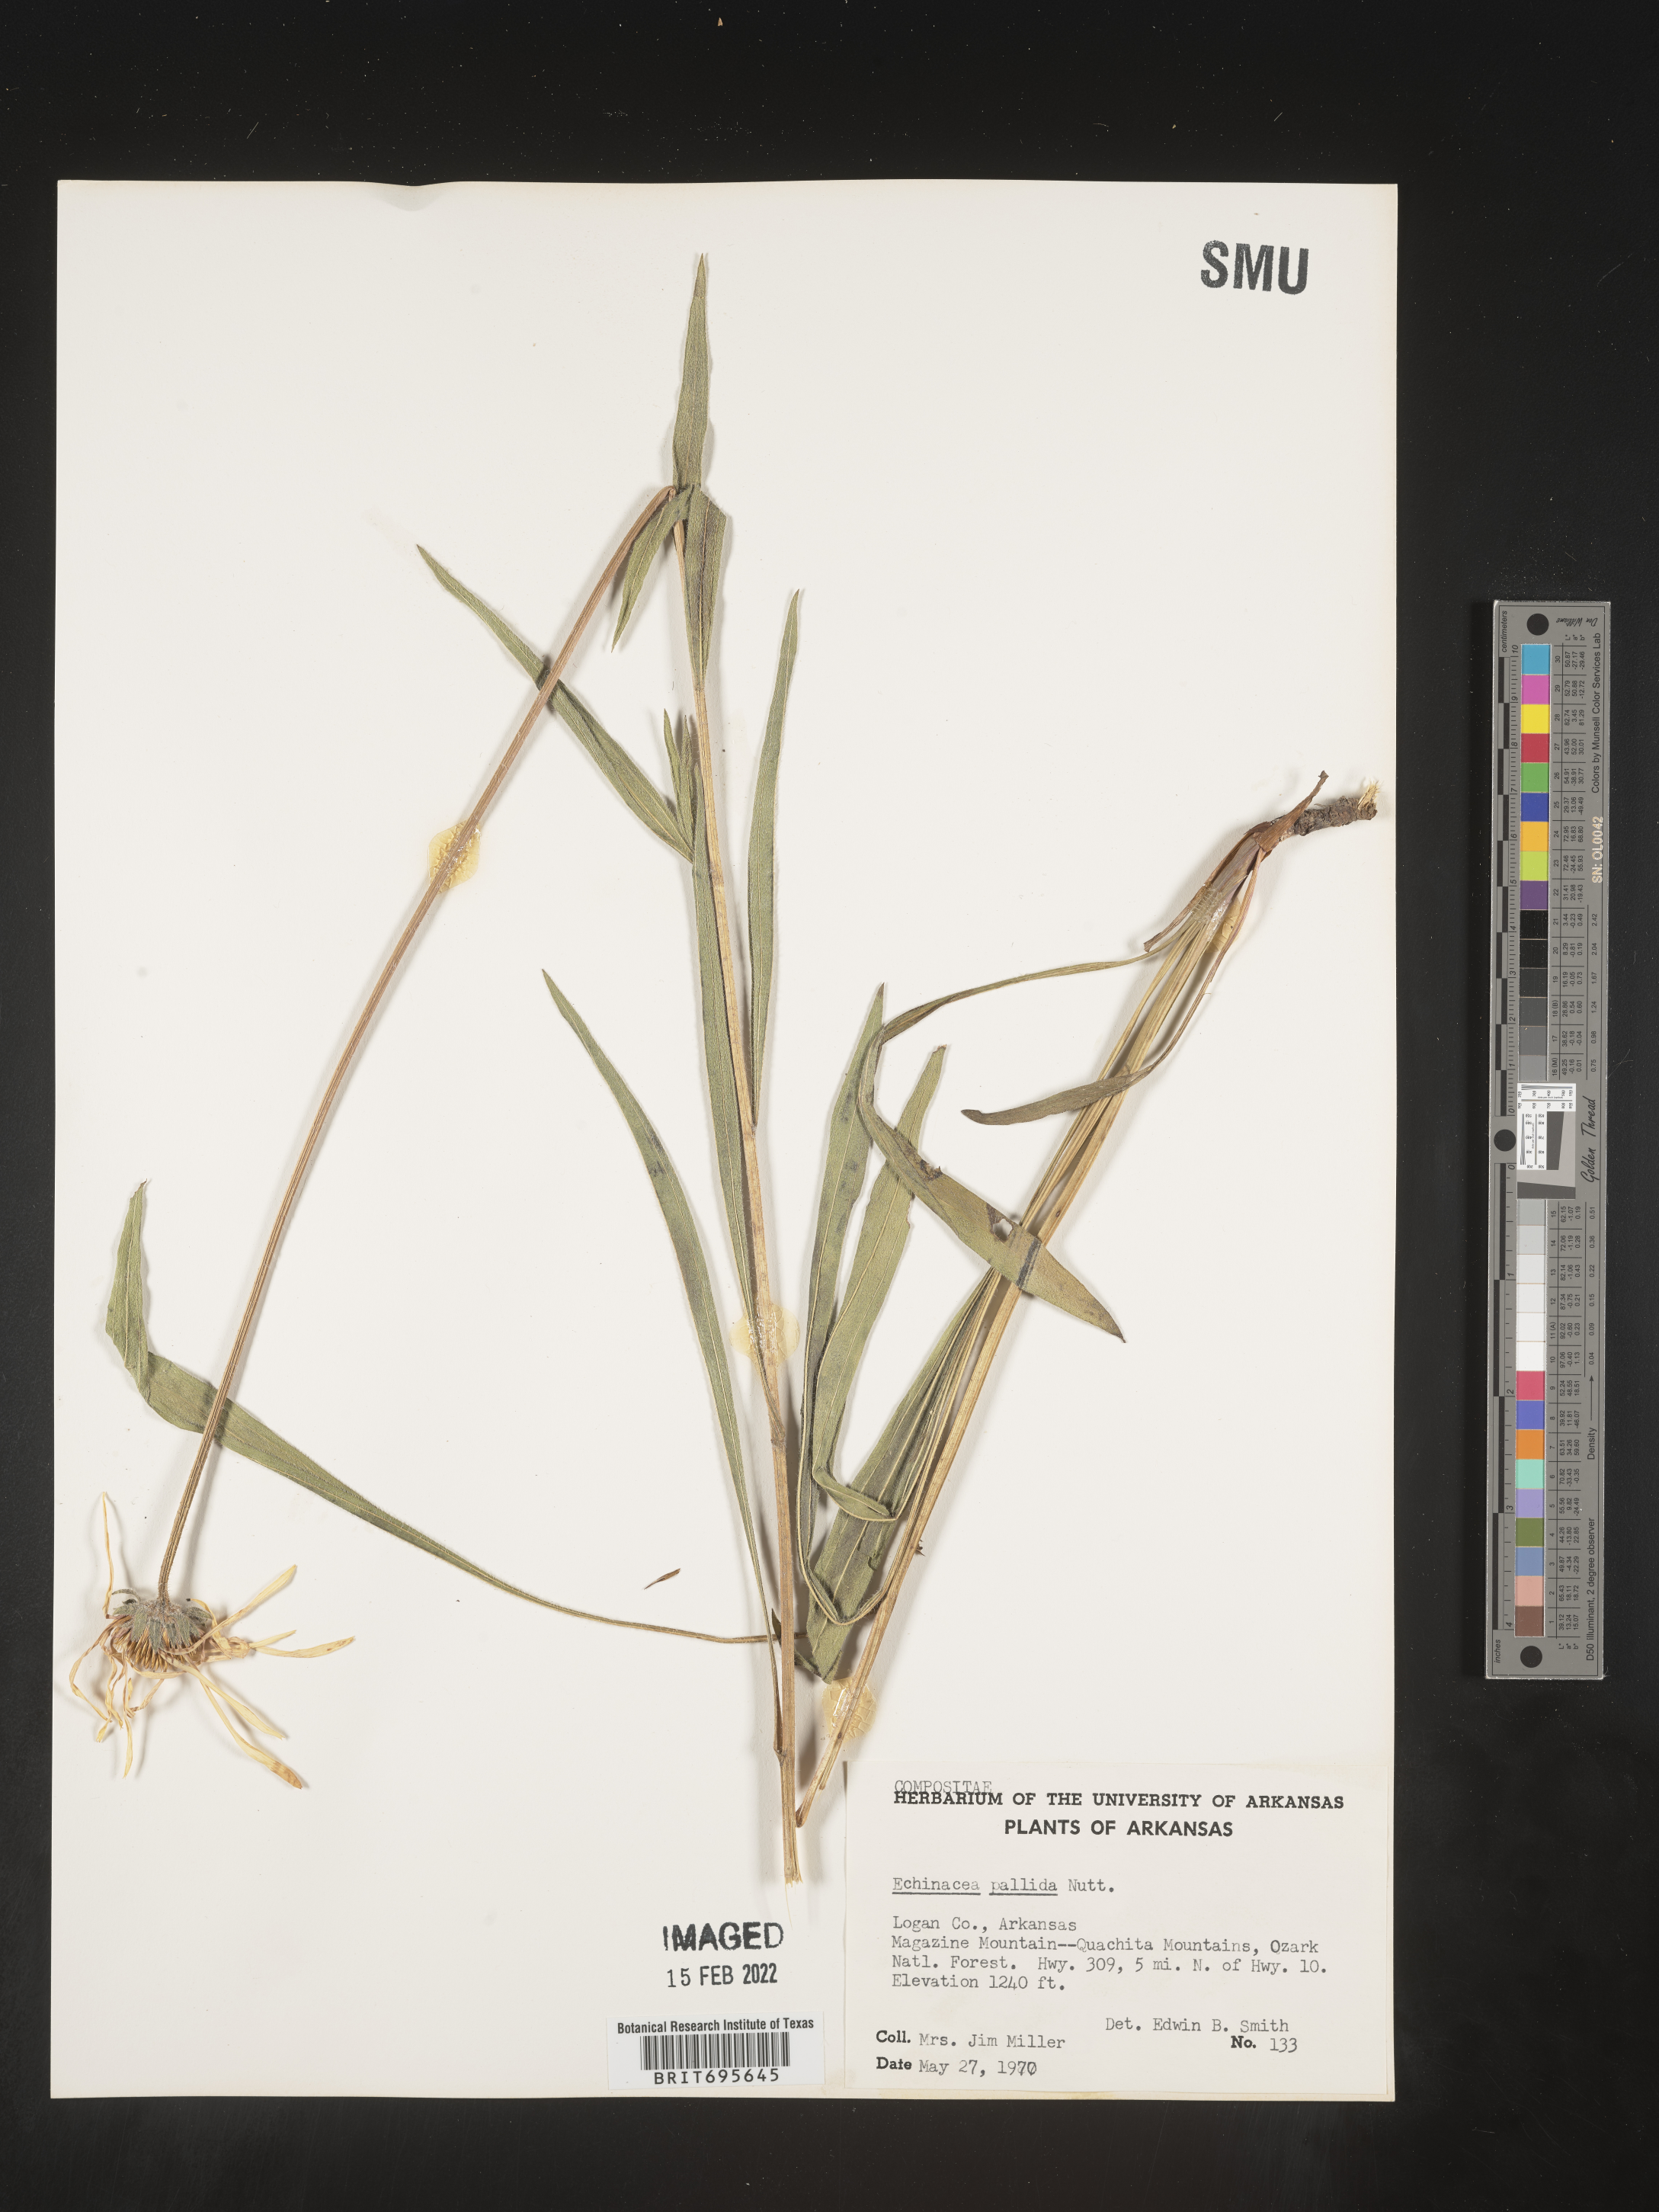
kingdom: Plantae
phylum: Tracheophyta
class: Magnoliopsida
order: Asterales
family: Asteraceae
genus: Echinacea
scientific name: Echinacea pallida
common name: Pale echinacea
